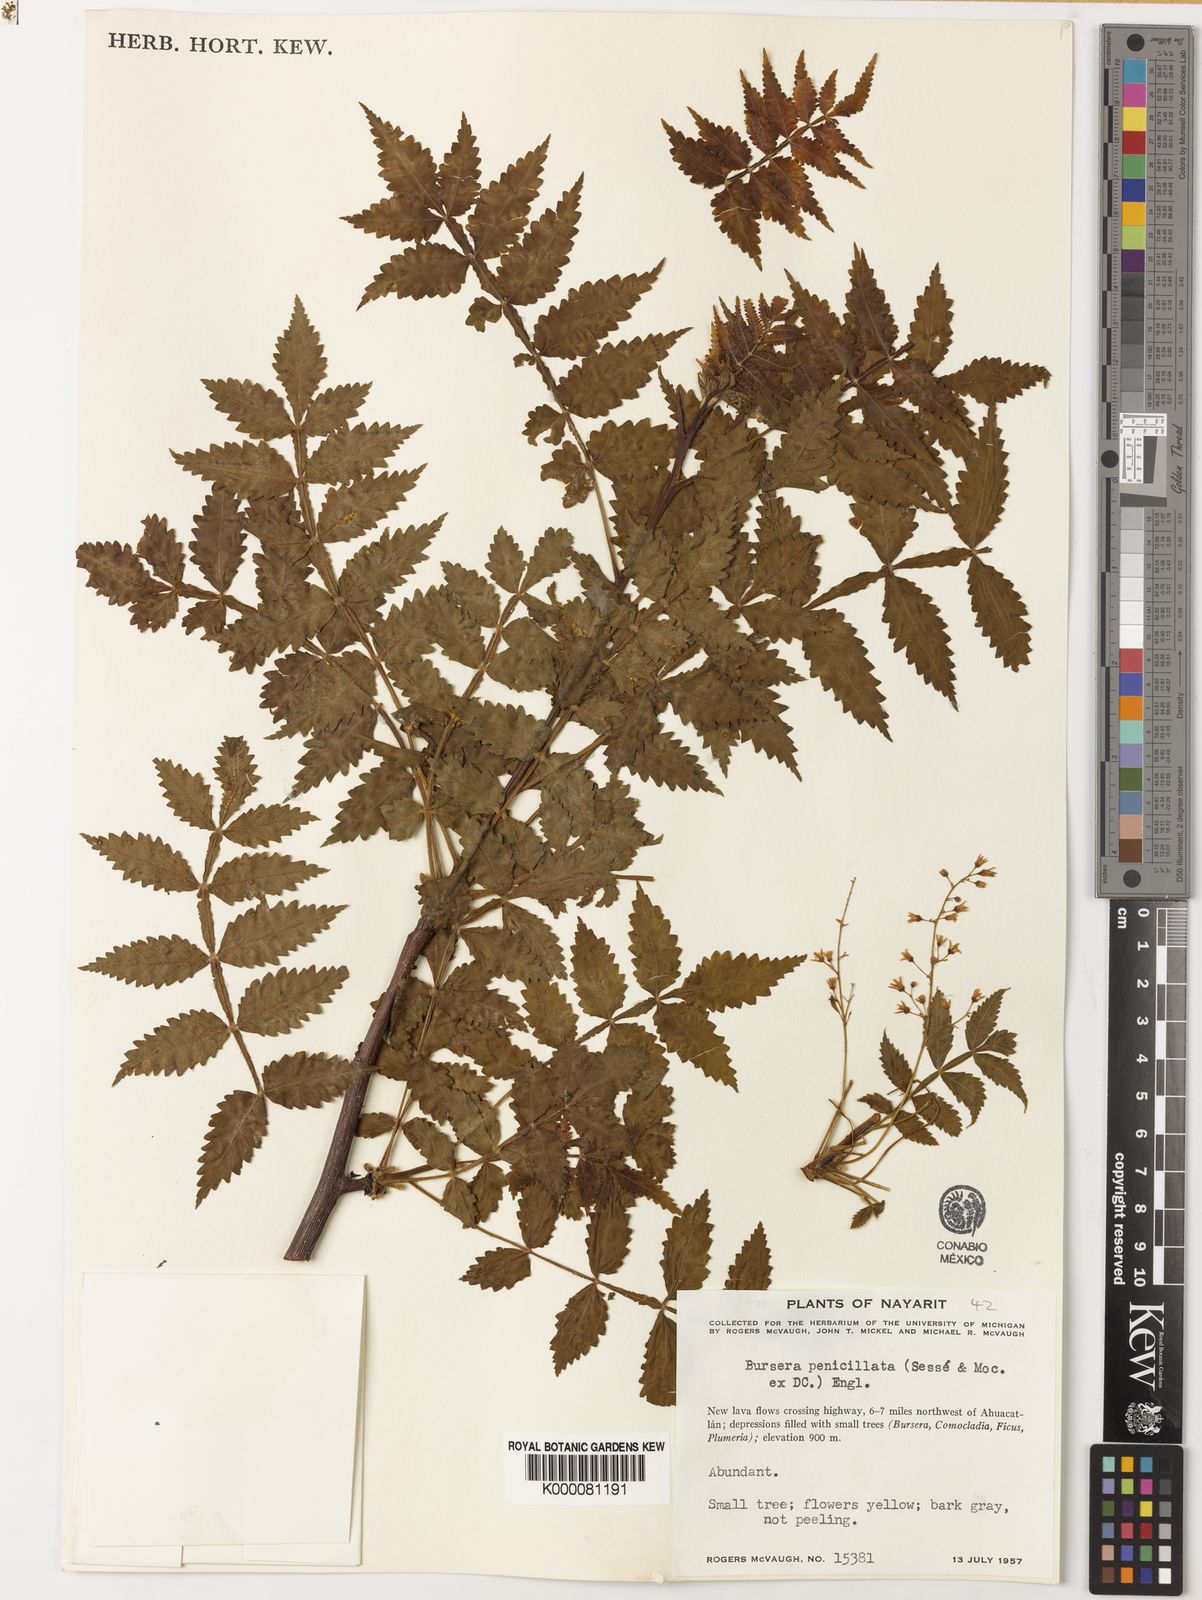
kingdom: Plantae
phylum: Tracheophyta
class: Magnoliopsida
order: Sapindales
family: Burseraceae
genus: Bursera
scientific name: Bursera penicillata
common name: Indian-lavender
